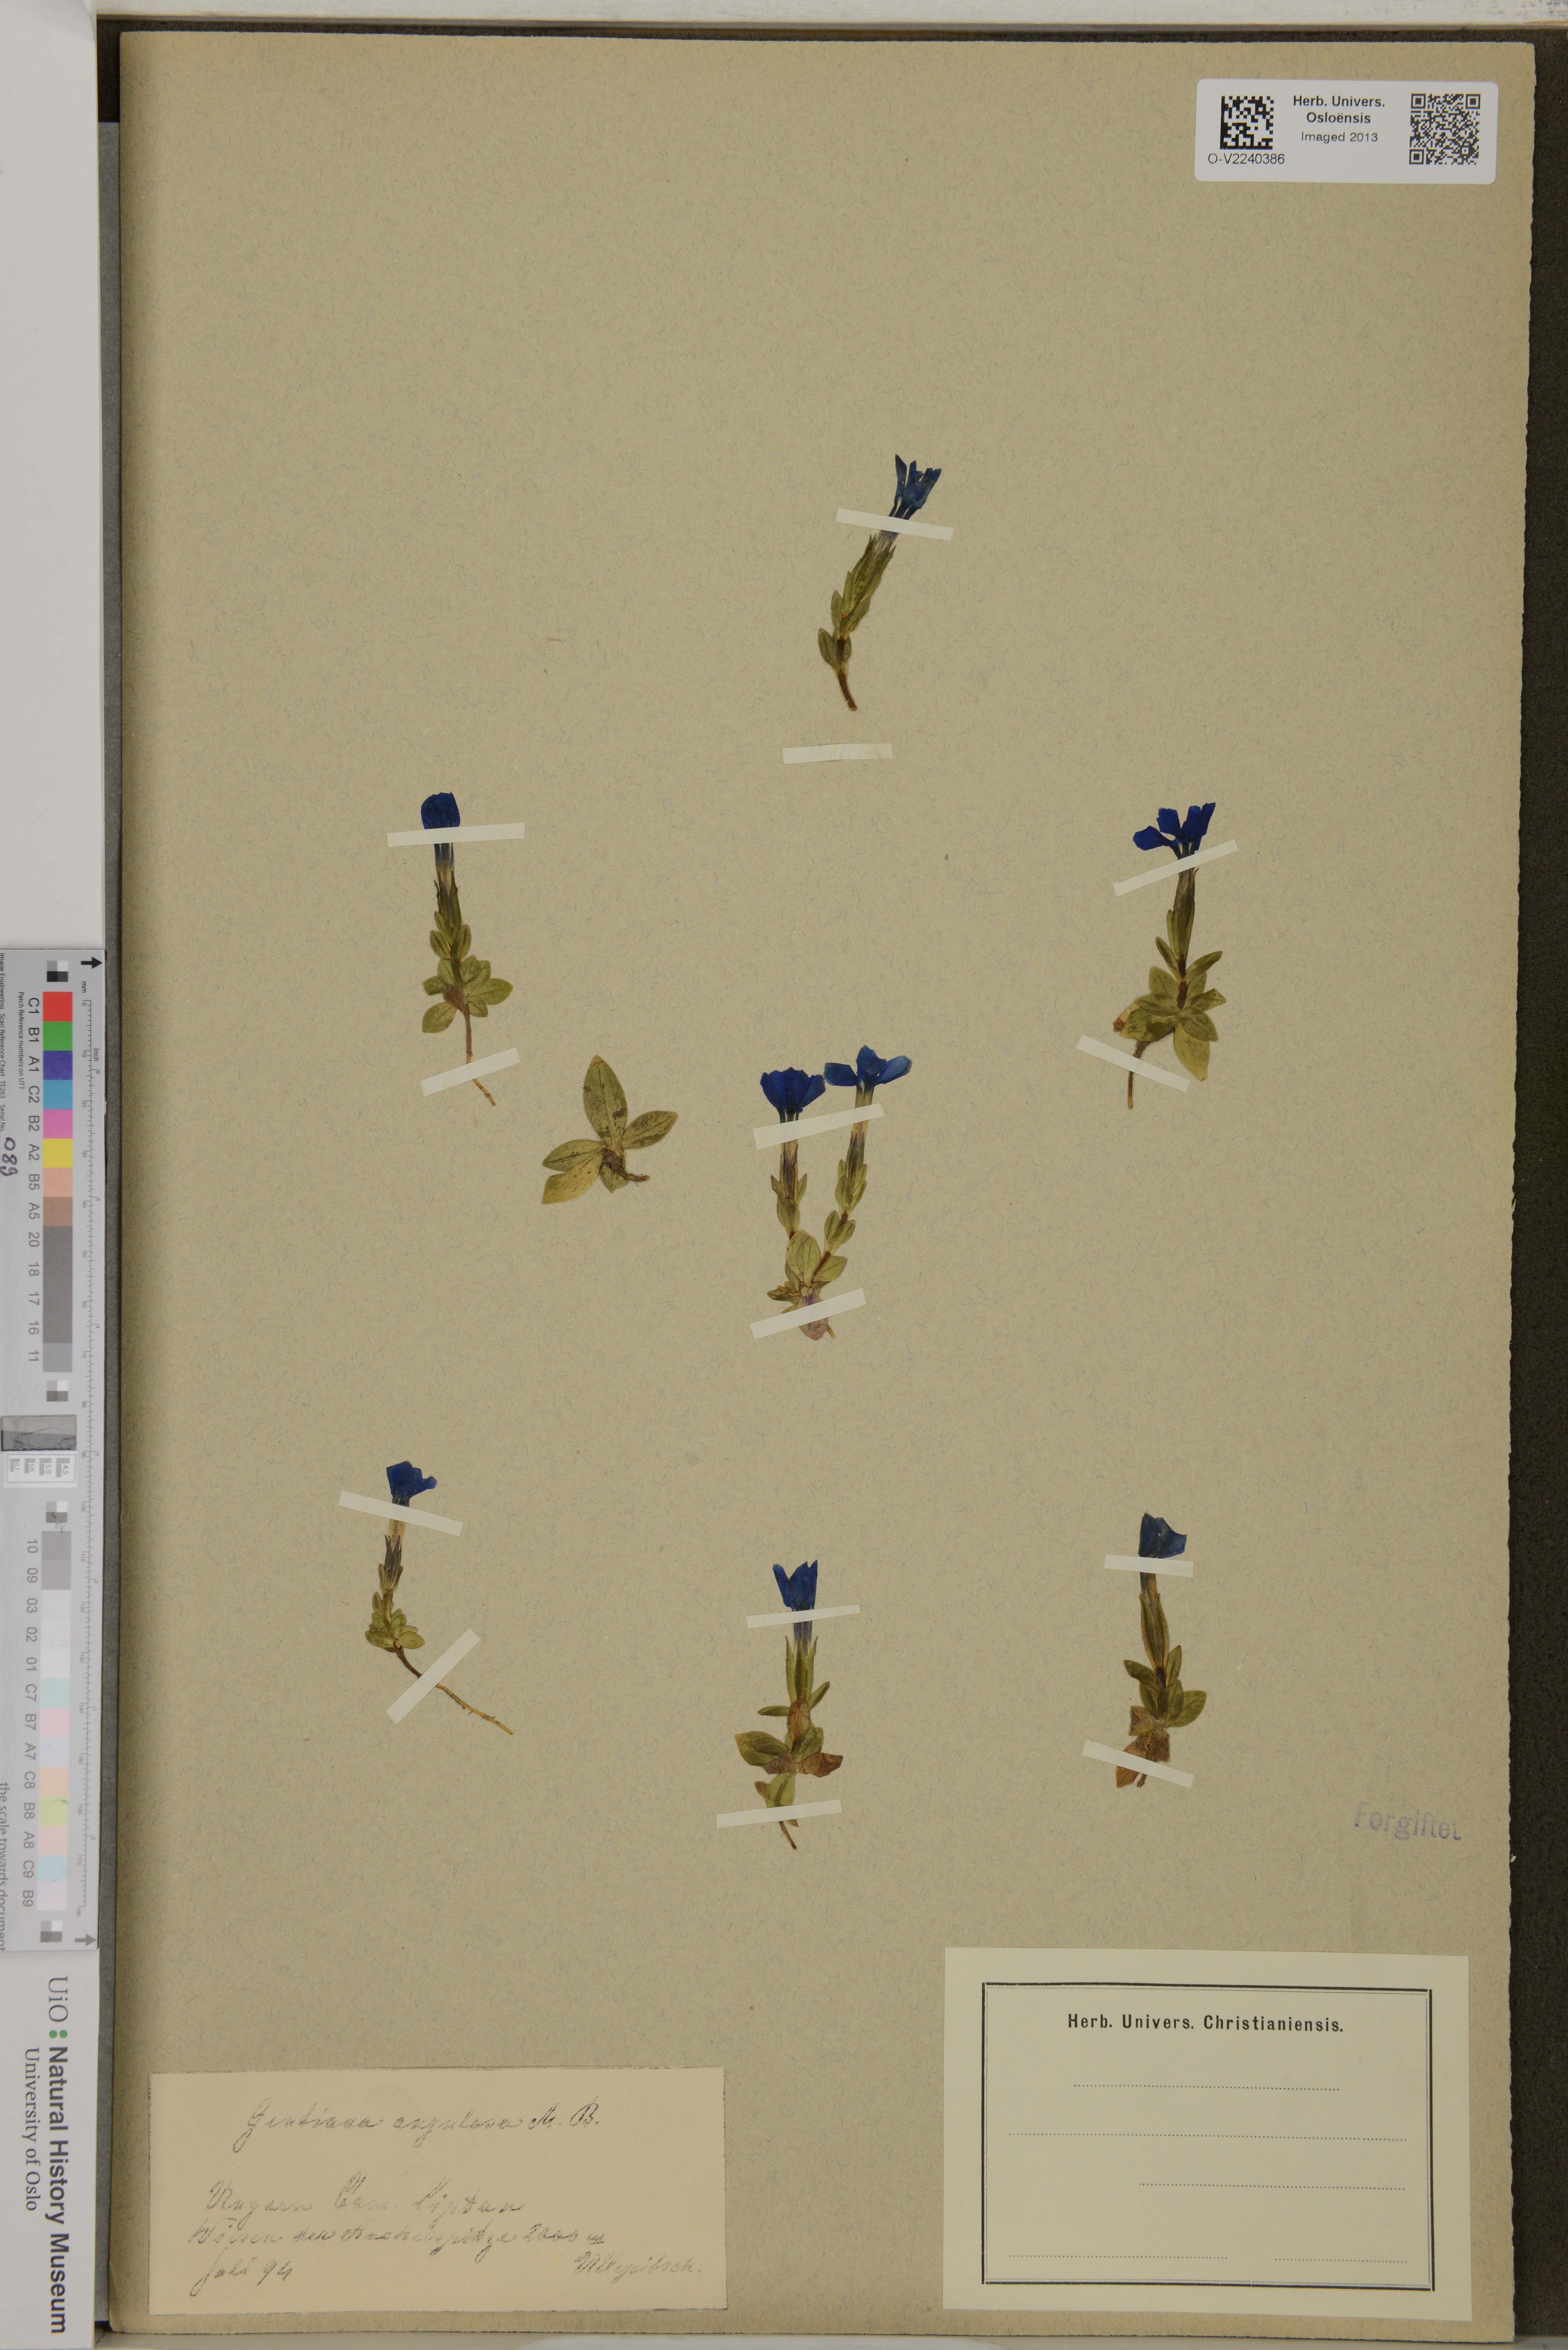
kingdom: Plantae
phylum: Tracheophyta
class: Magnoliopsida
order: Gentianales
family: Gentianaceae
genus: Gentiana
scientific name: Gentiana verna
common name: Spring gentian
